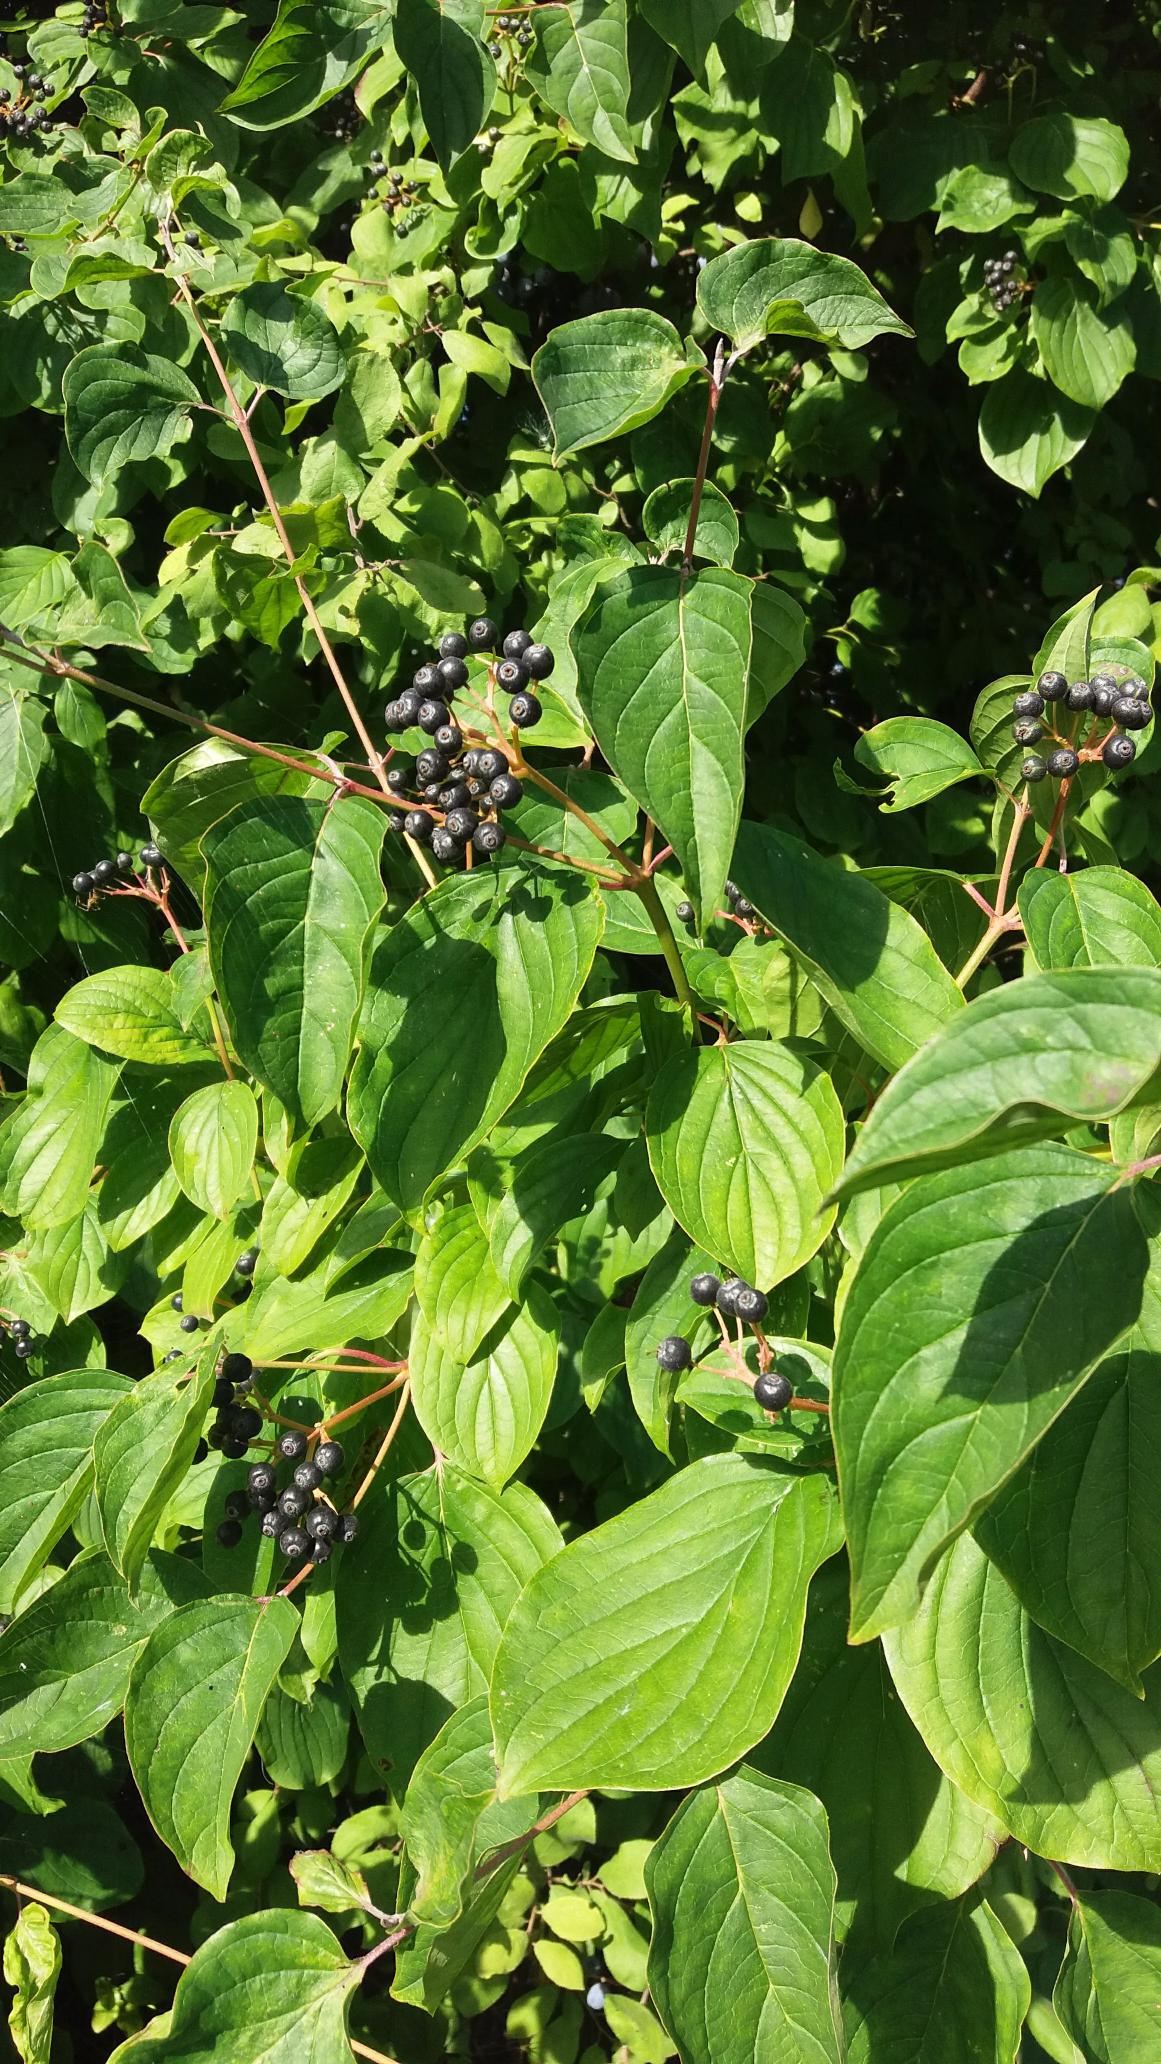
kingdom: Plantae
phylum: Tracheophyta
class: Magnoliopsida
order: Cornales
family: Cornaceae
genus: Cornus
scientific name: Cornus sanguinea
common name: Rød kornel
